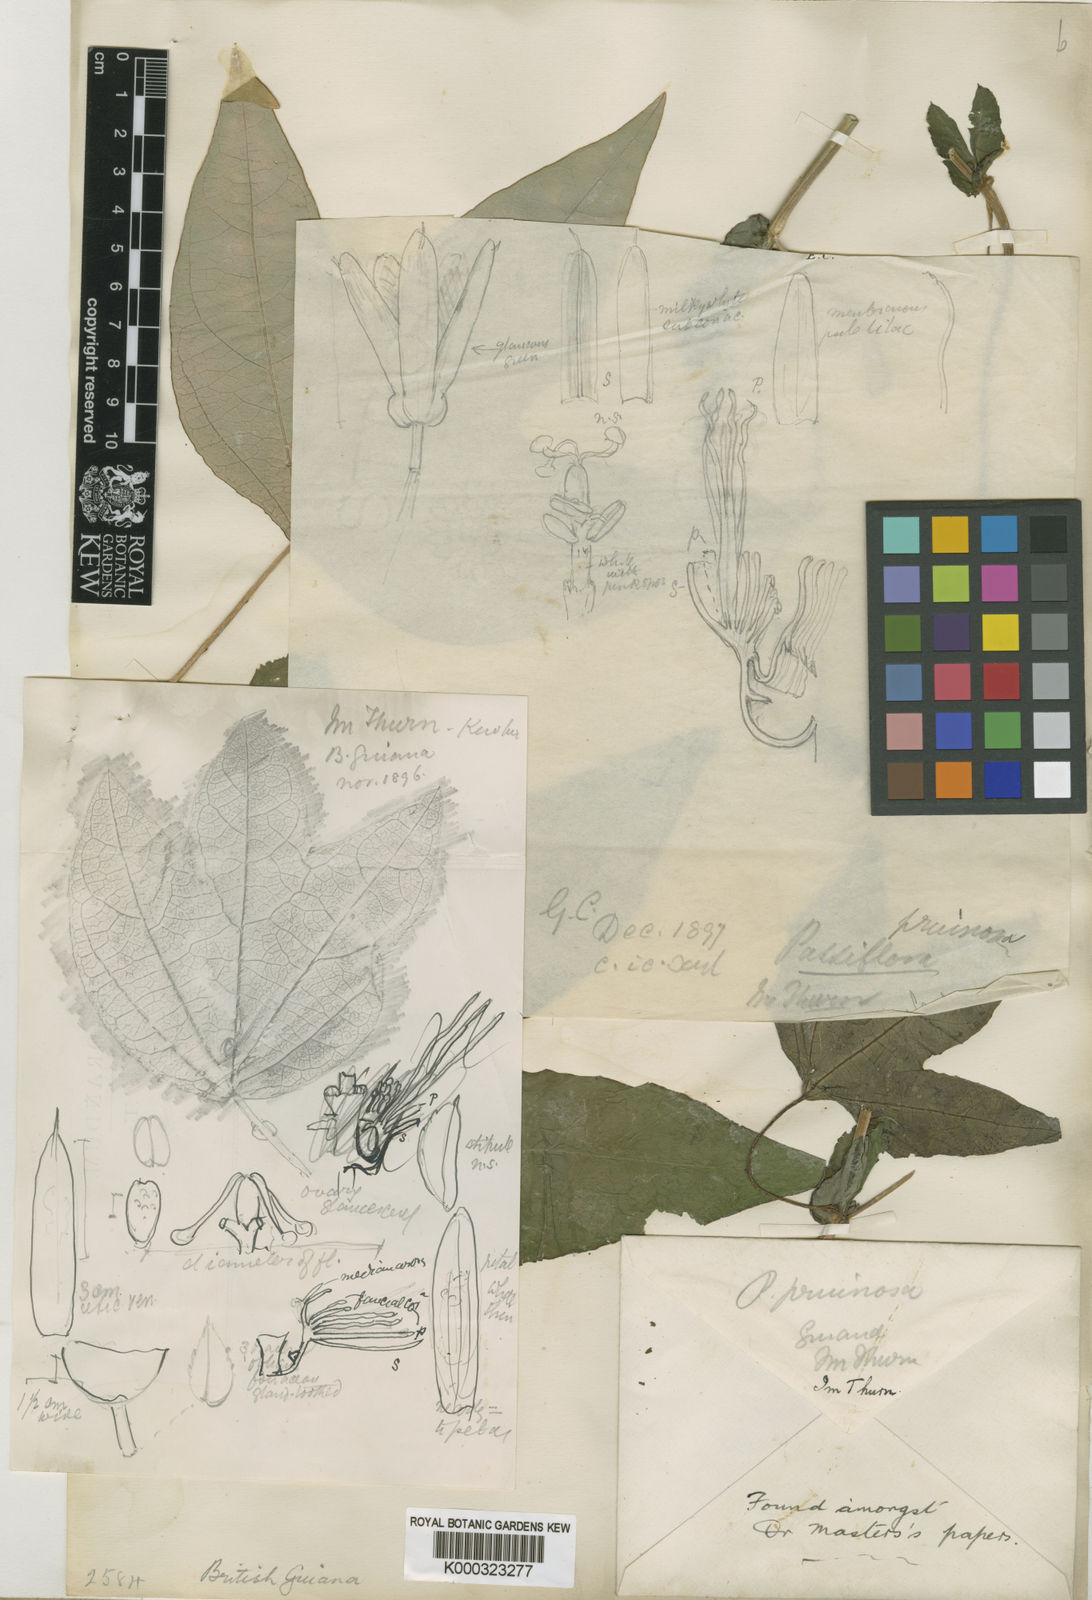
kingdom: Plantae
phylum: Tracheophyta
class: Magnoliopsida
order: Malpighiales
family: Passifloraceae
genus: Passiflora
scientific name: Passiflora garckei
